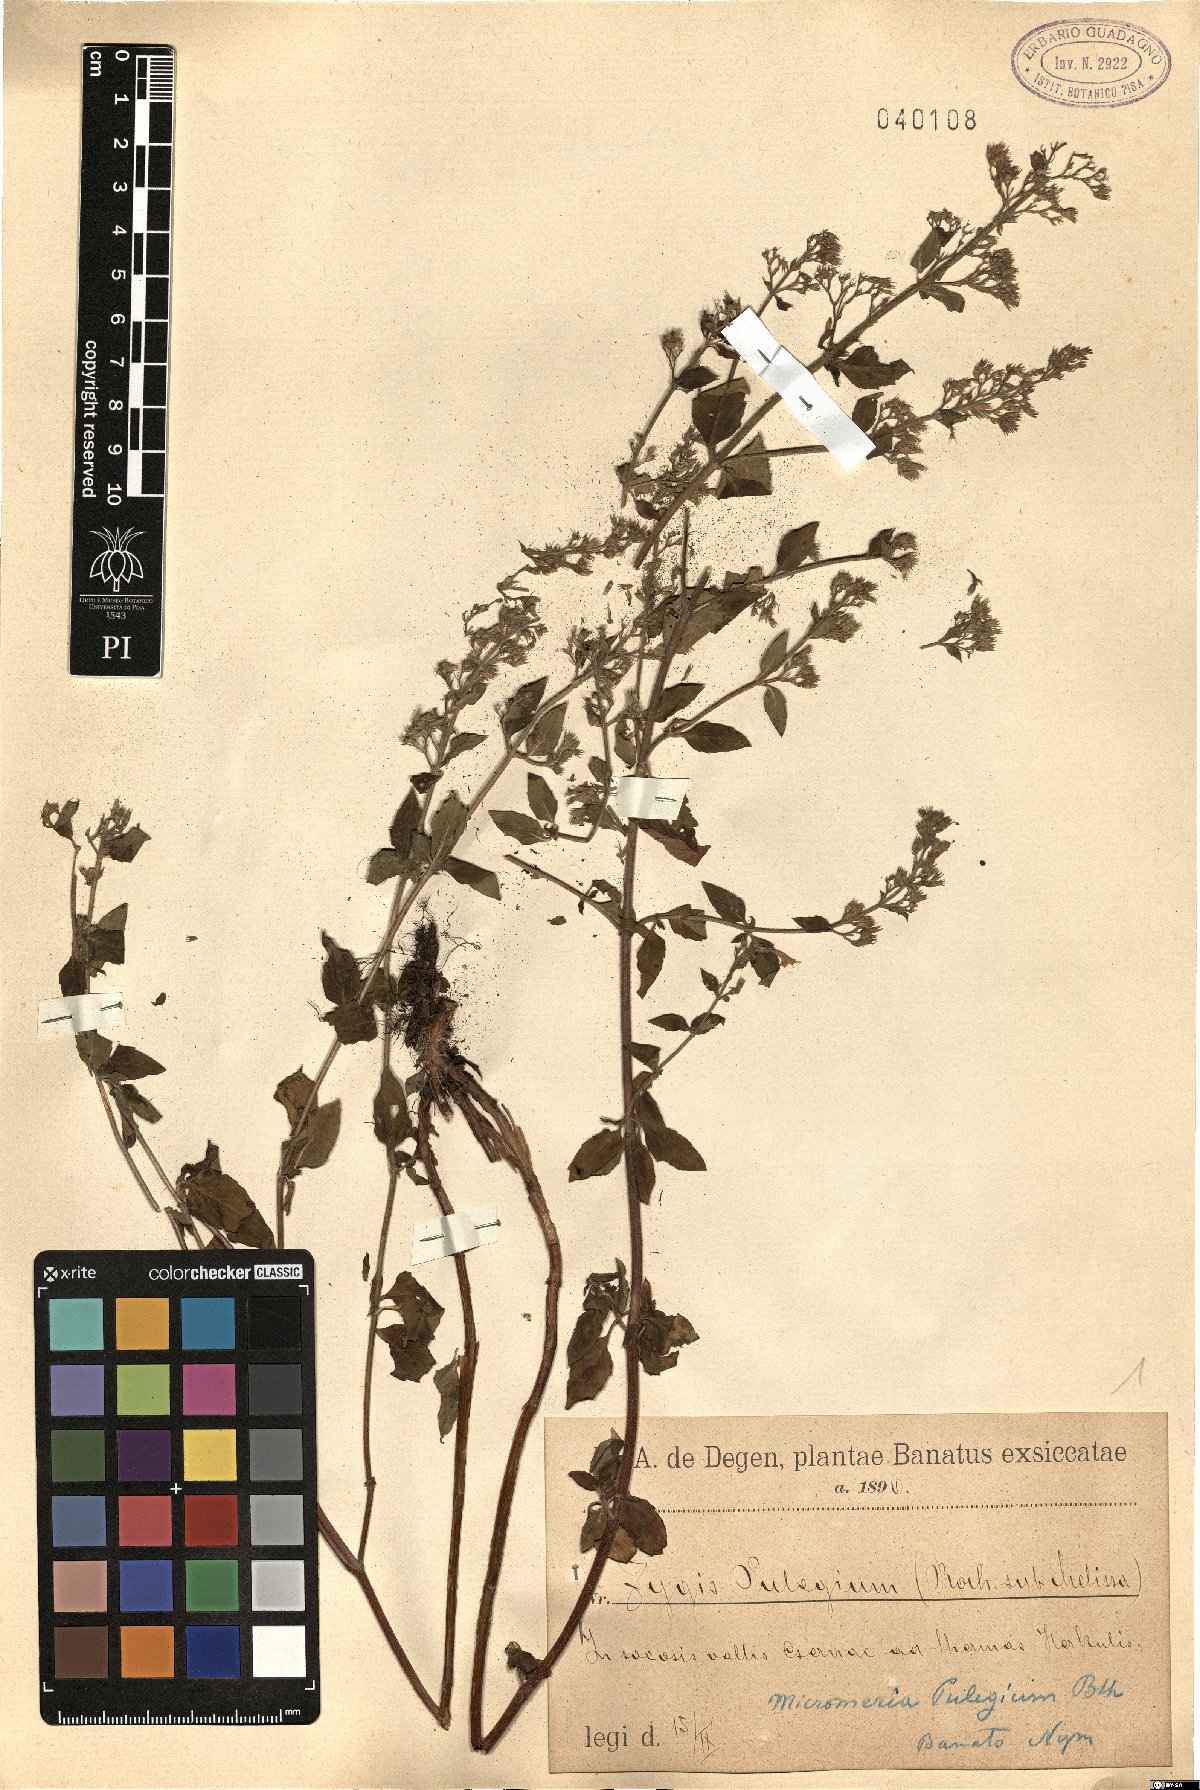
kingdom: Plantae
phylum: Tracheophyta
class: Magnoliopsida
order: Lamiales
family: Lamiaceae
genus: Clinopodium
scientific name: Clinopodium pulegium
